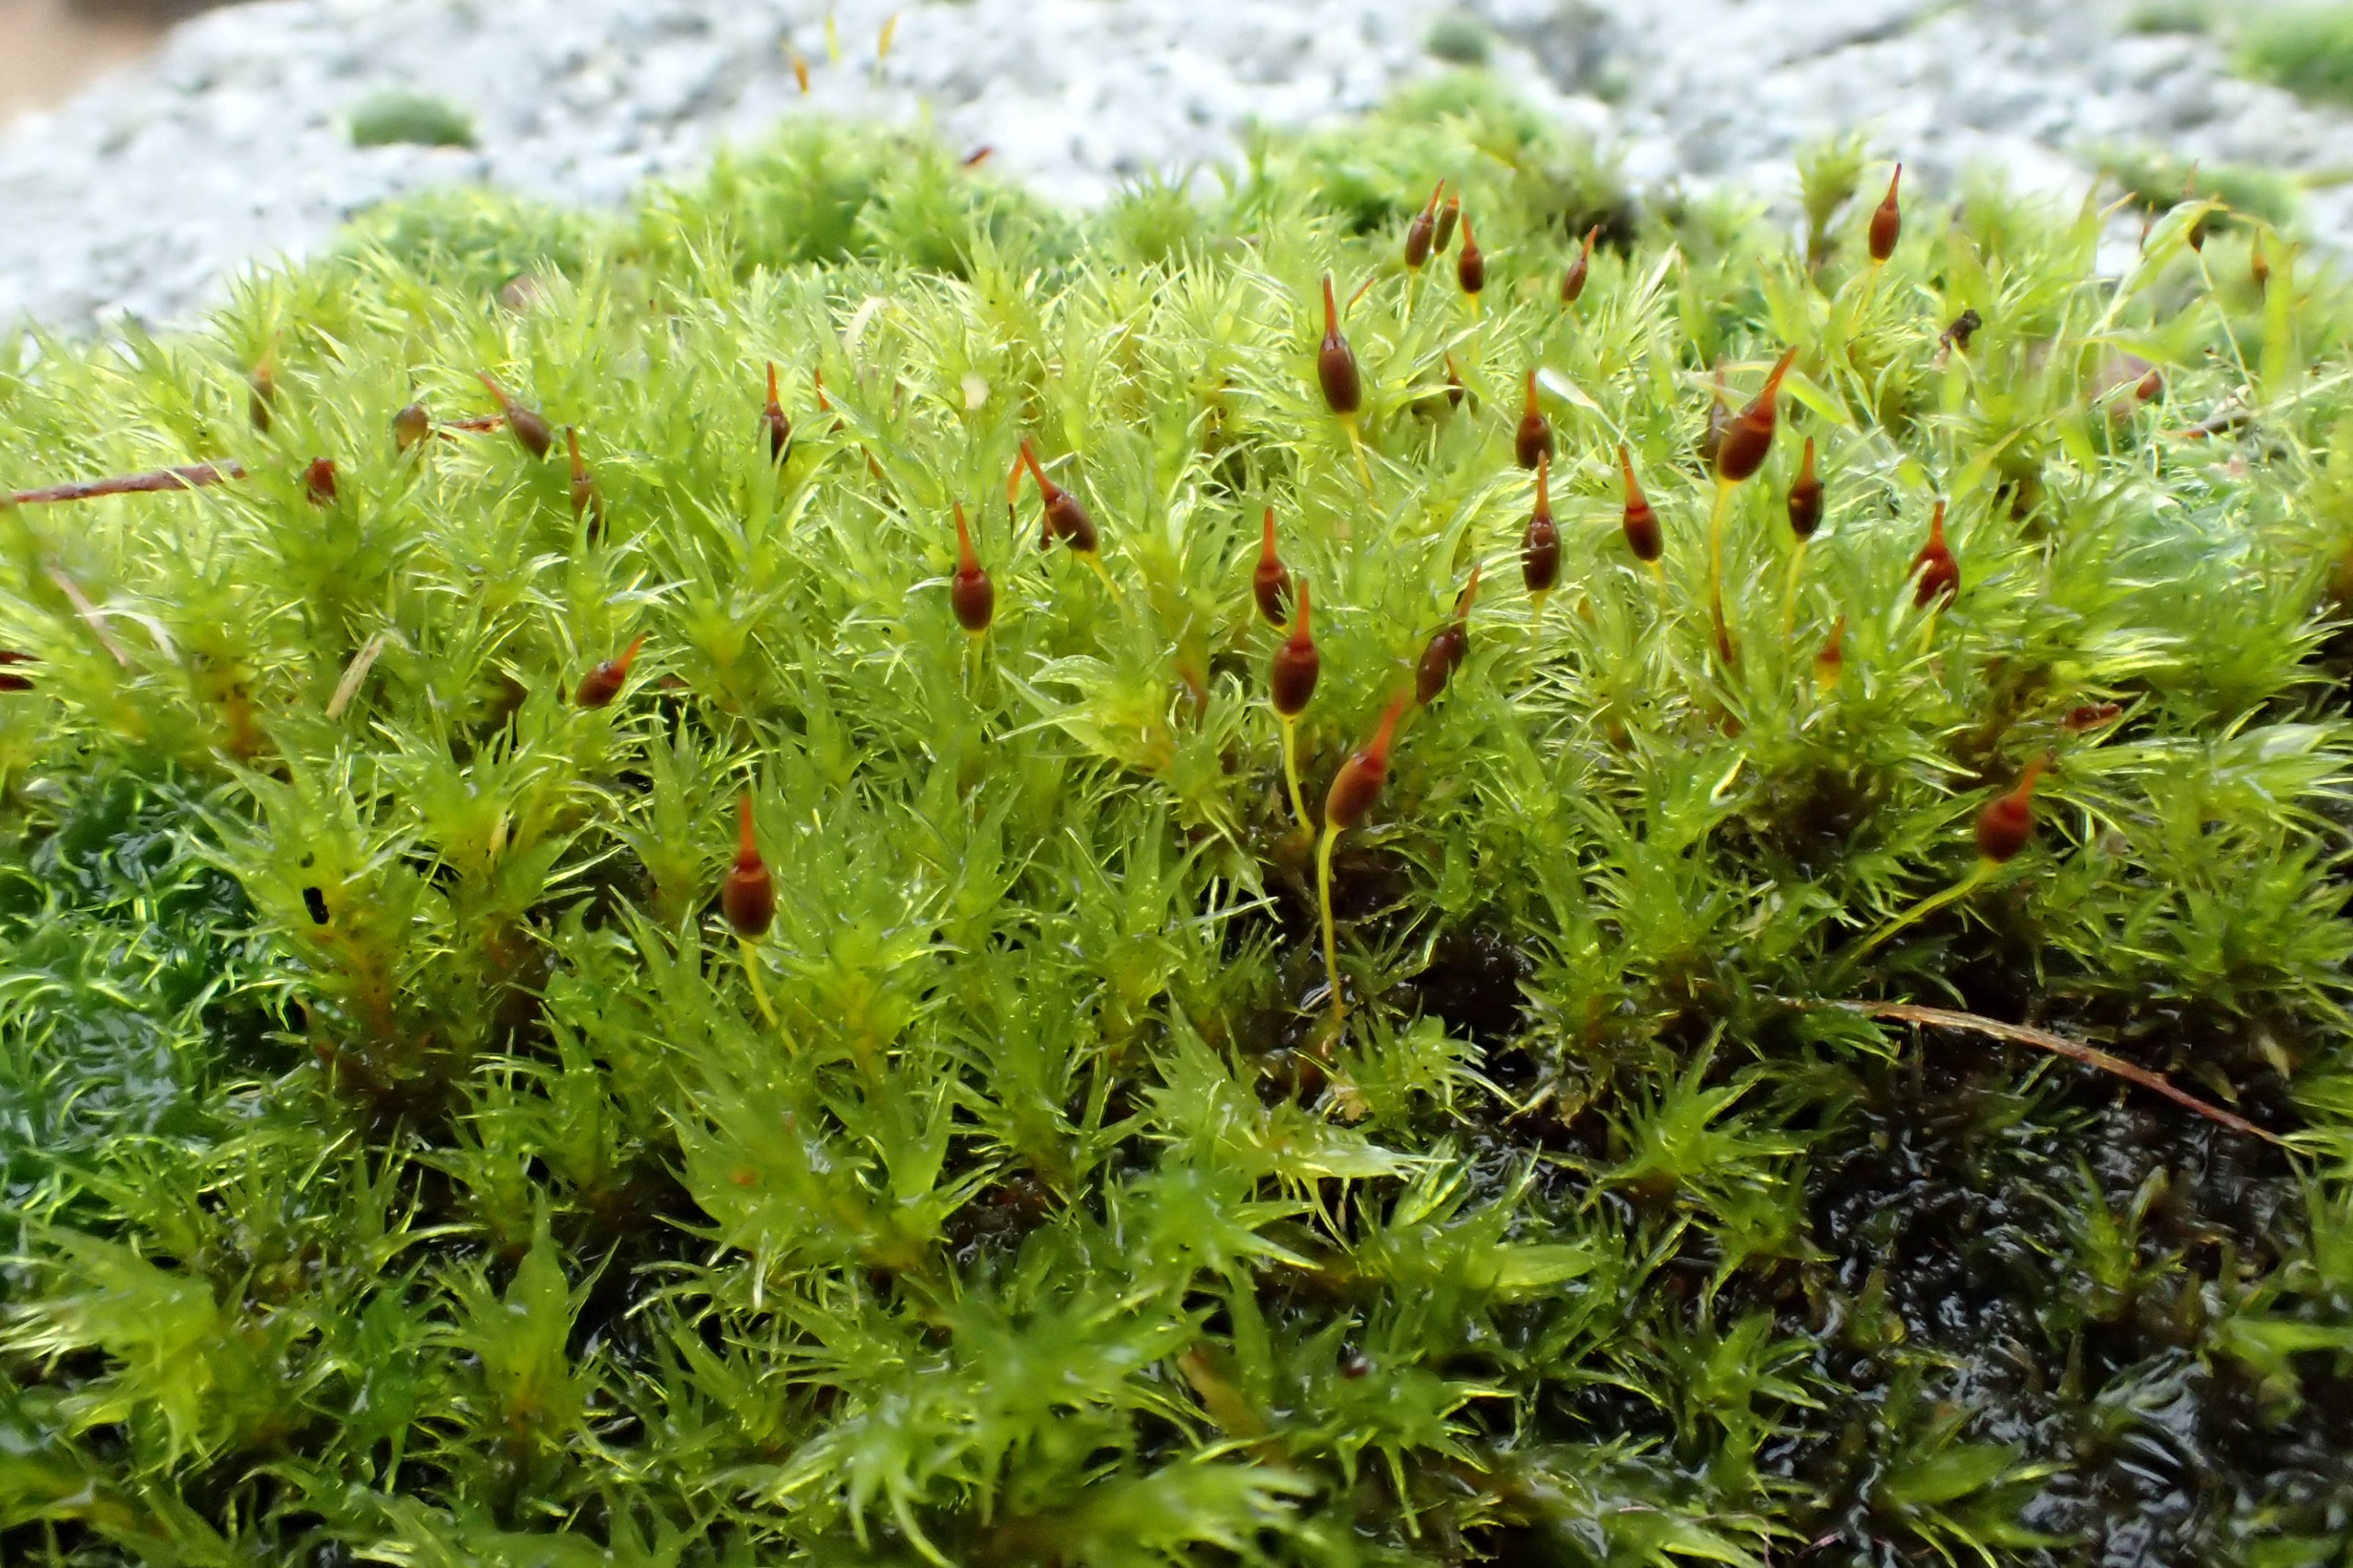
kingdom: Plantae
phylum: Bryophyta
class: Bryopsida
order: Grimmiales
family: Grimmiaceae
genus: Dilutineuron
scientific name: Dilutineuron fasciculare
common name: Knippe-børstemos
